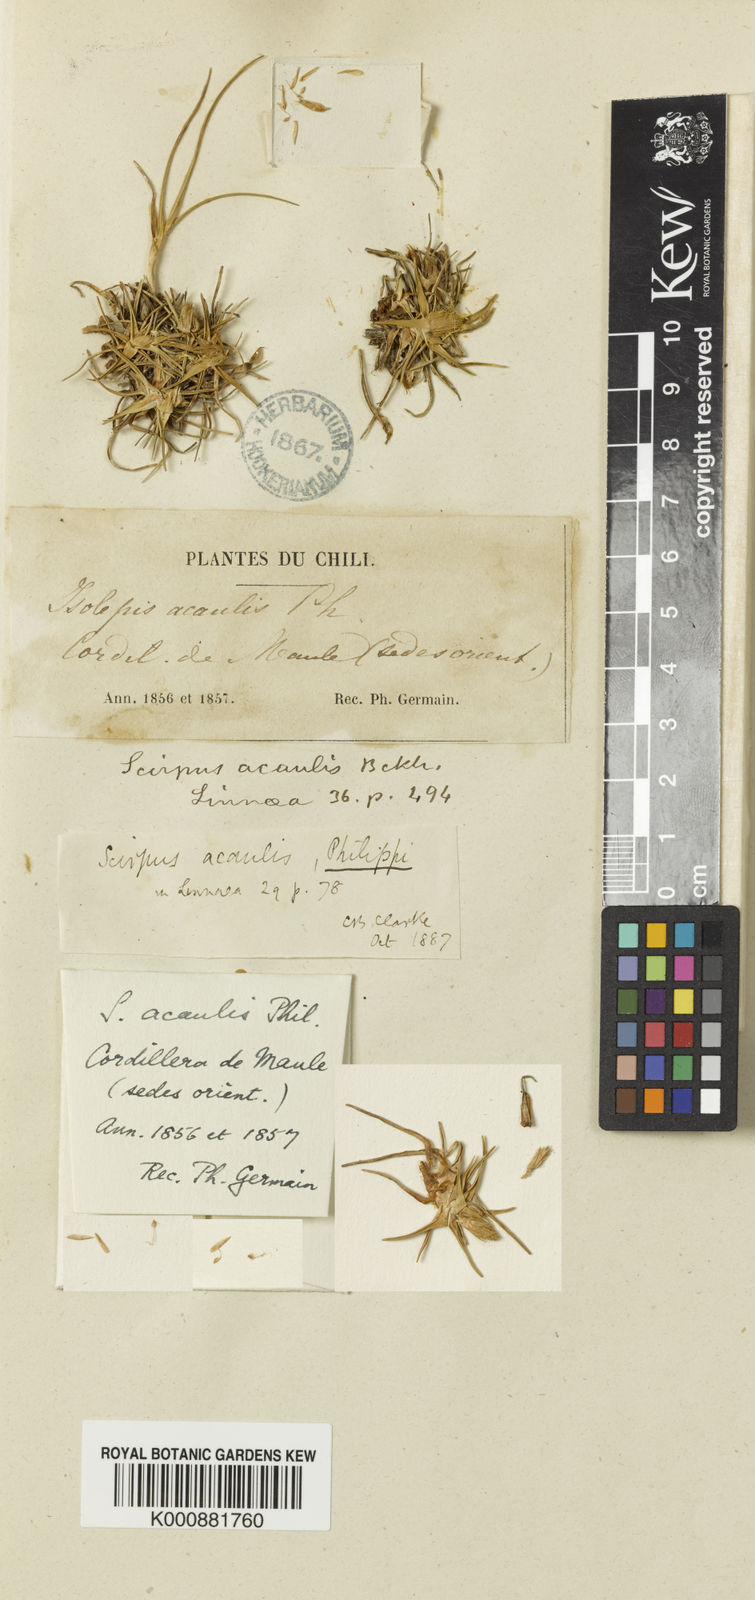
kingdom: Plantae
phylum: Tracheophyta
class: Liliopsida
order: Poales
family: Cyperaceae
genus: Phylloscirpus
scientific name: Phylloscirpus acaulis
